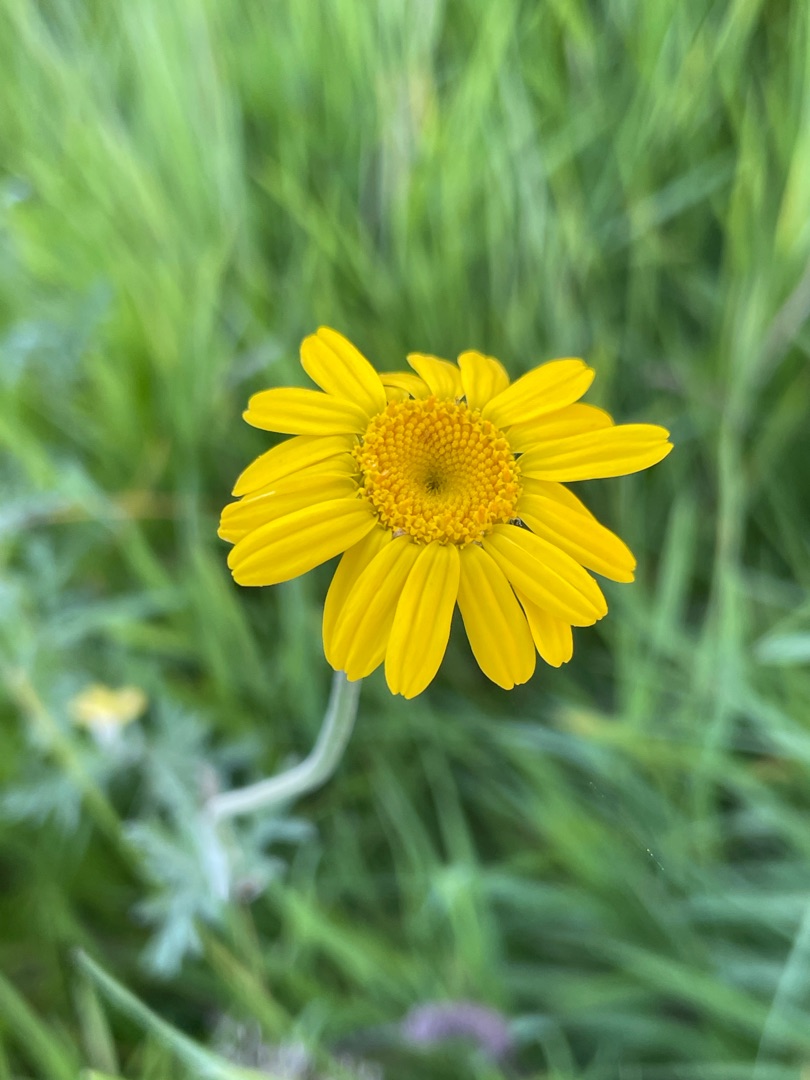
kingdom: Plantae
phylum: Tracheophyta
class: Magnoliopsida
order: Asterales
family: Asteraceae
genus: Cota
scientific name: Cota tinctoria
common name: Farve-gåseurt
